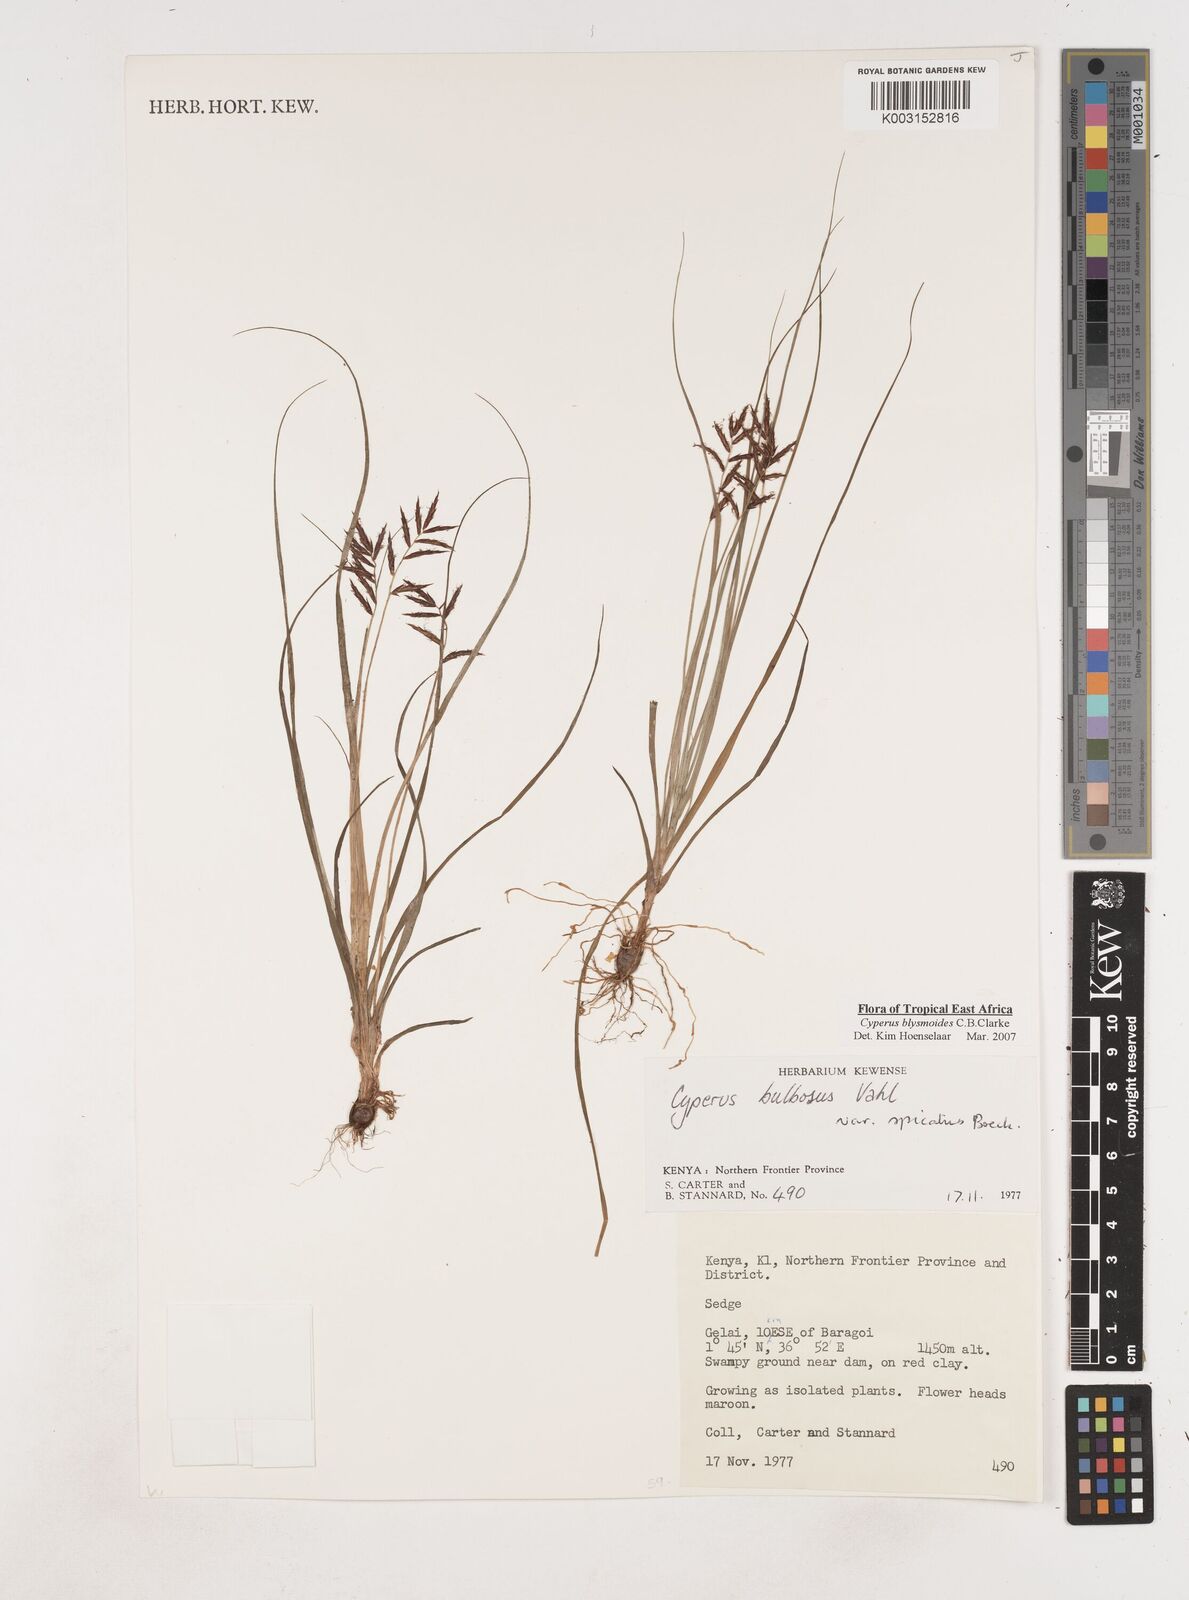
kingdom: Plantae
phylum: Tracheophyta
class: Liliopsida
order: Poales
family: Cyperaceae
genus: Cyperus
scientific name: Cyperus blysmoides
